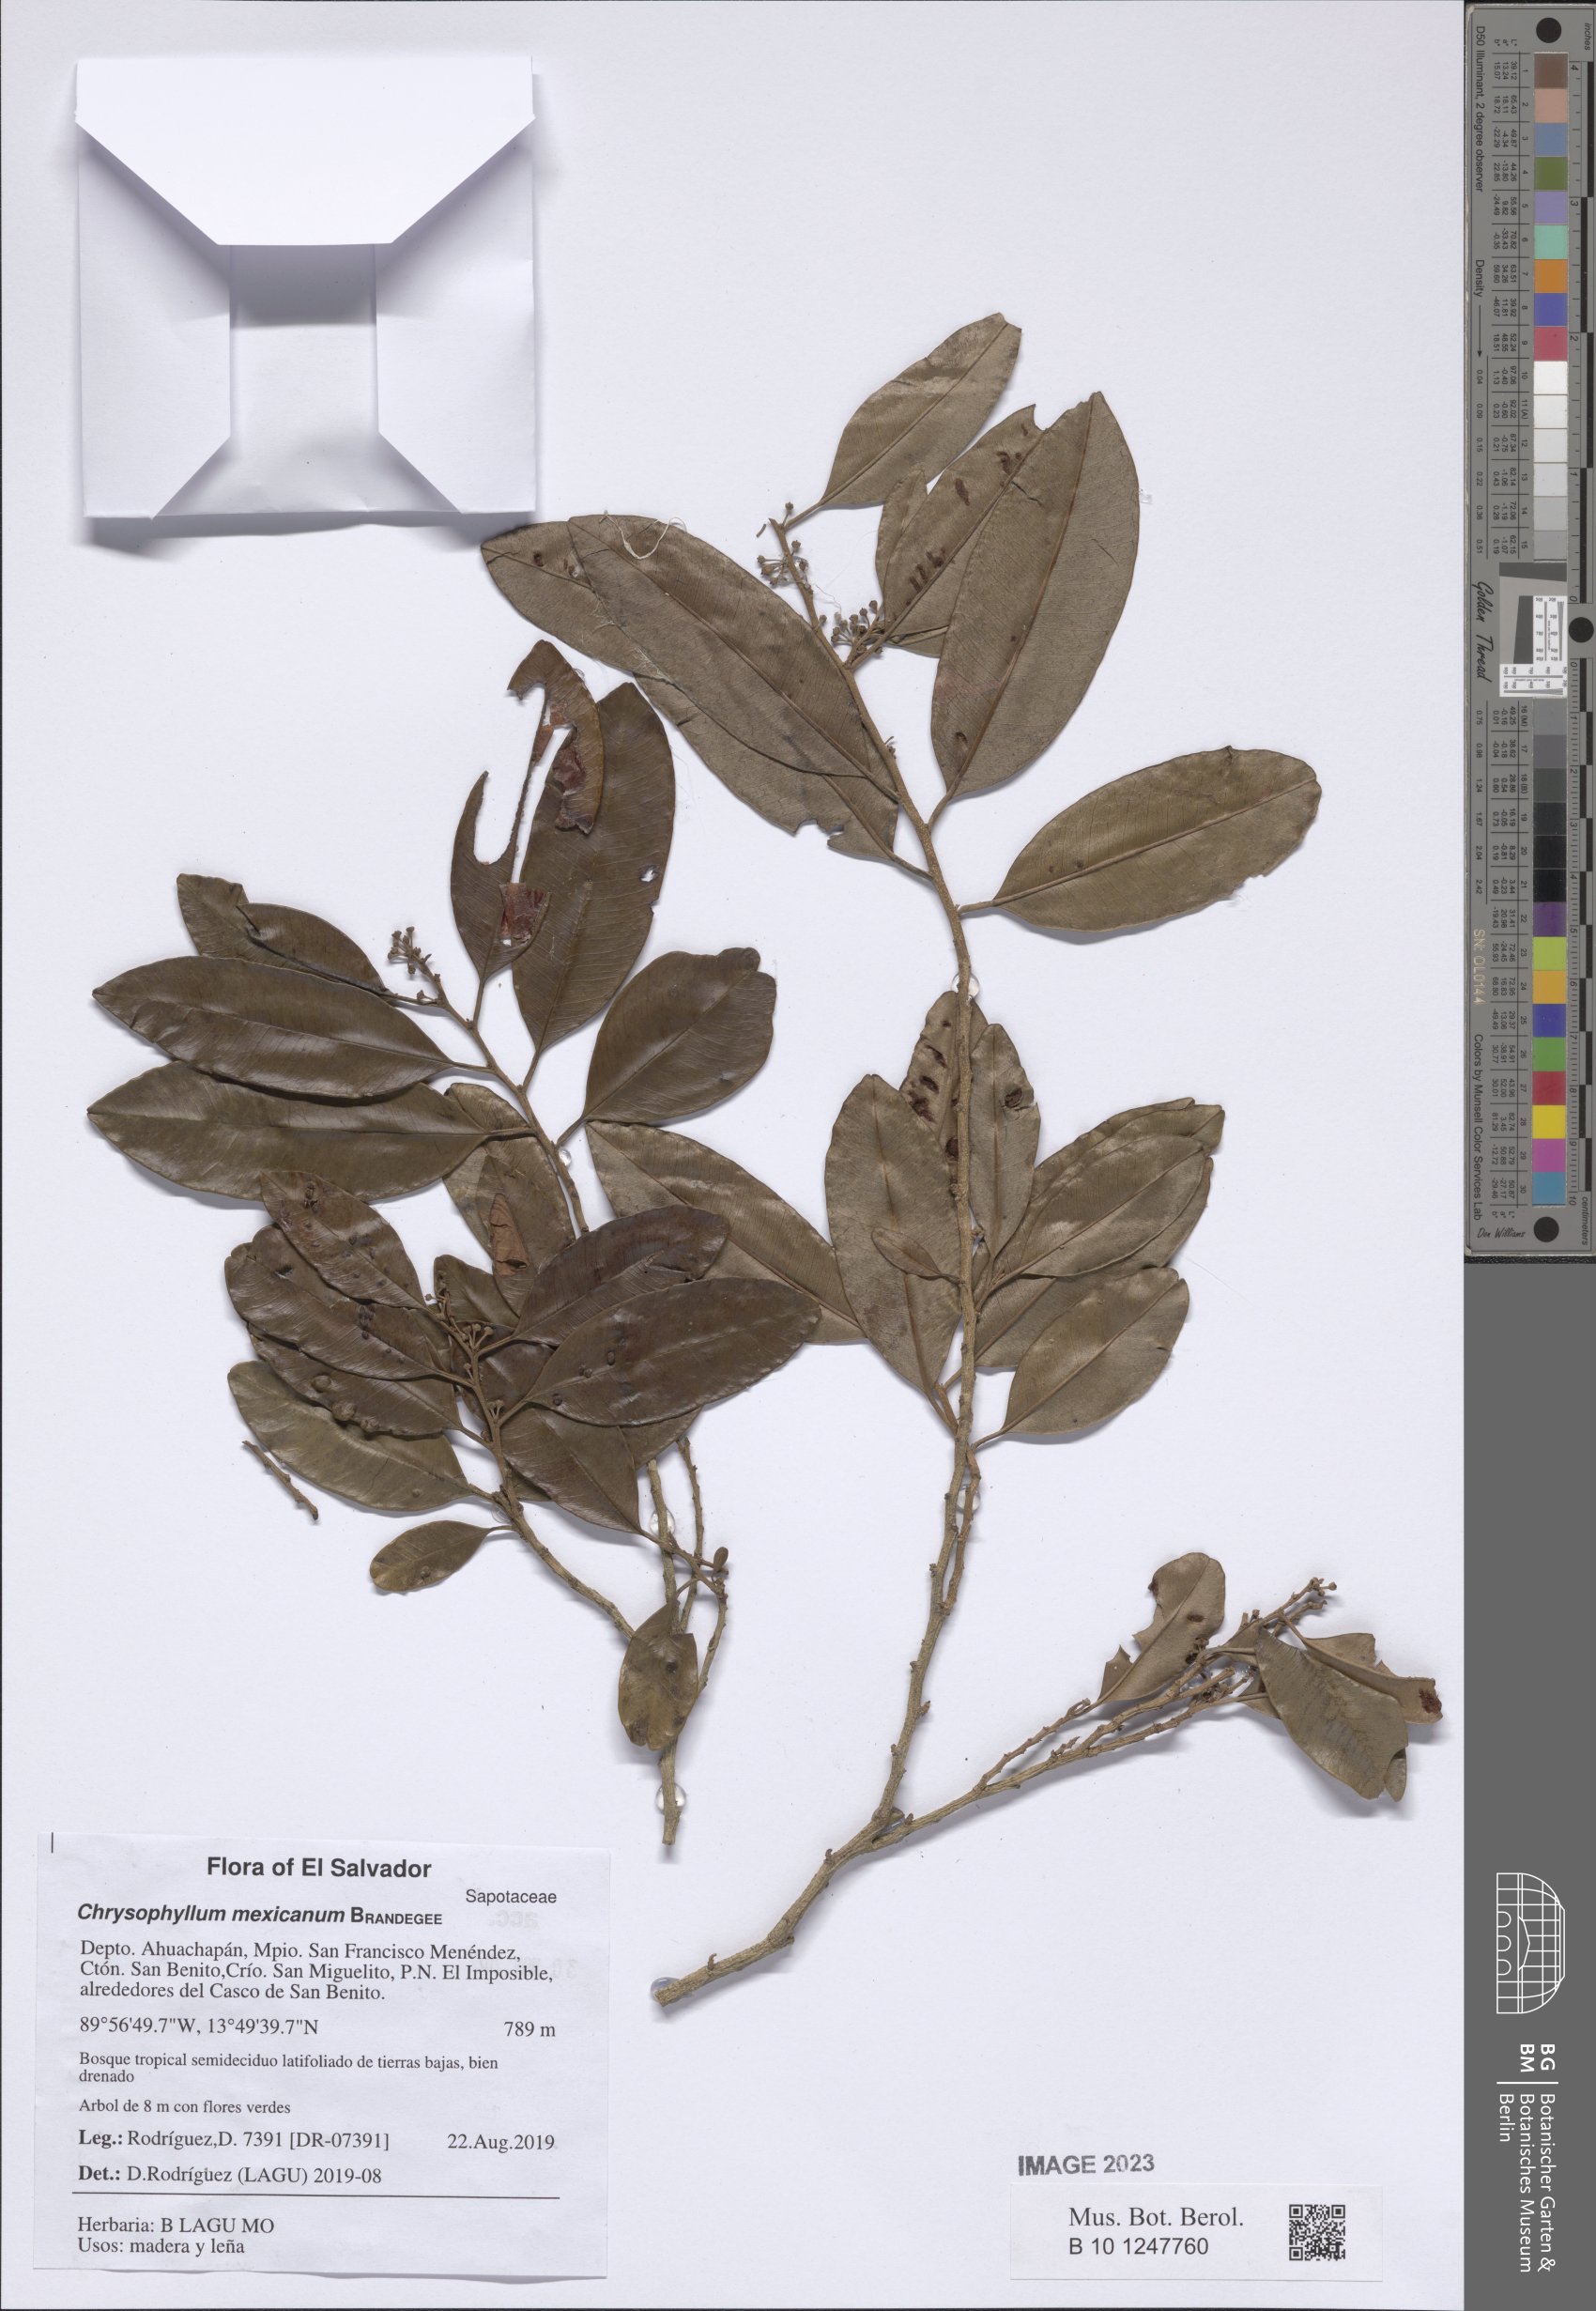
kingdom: Plantae
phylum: Tracheophyta
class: Magnoliopsida
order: Ericales
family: Sapotaceae
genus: Chrysophyllum
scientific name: Chrysophyllum mexicanum
